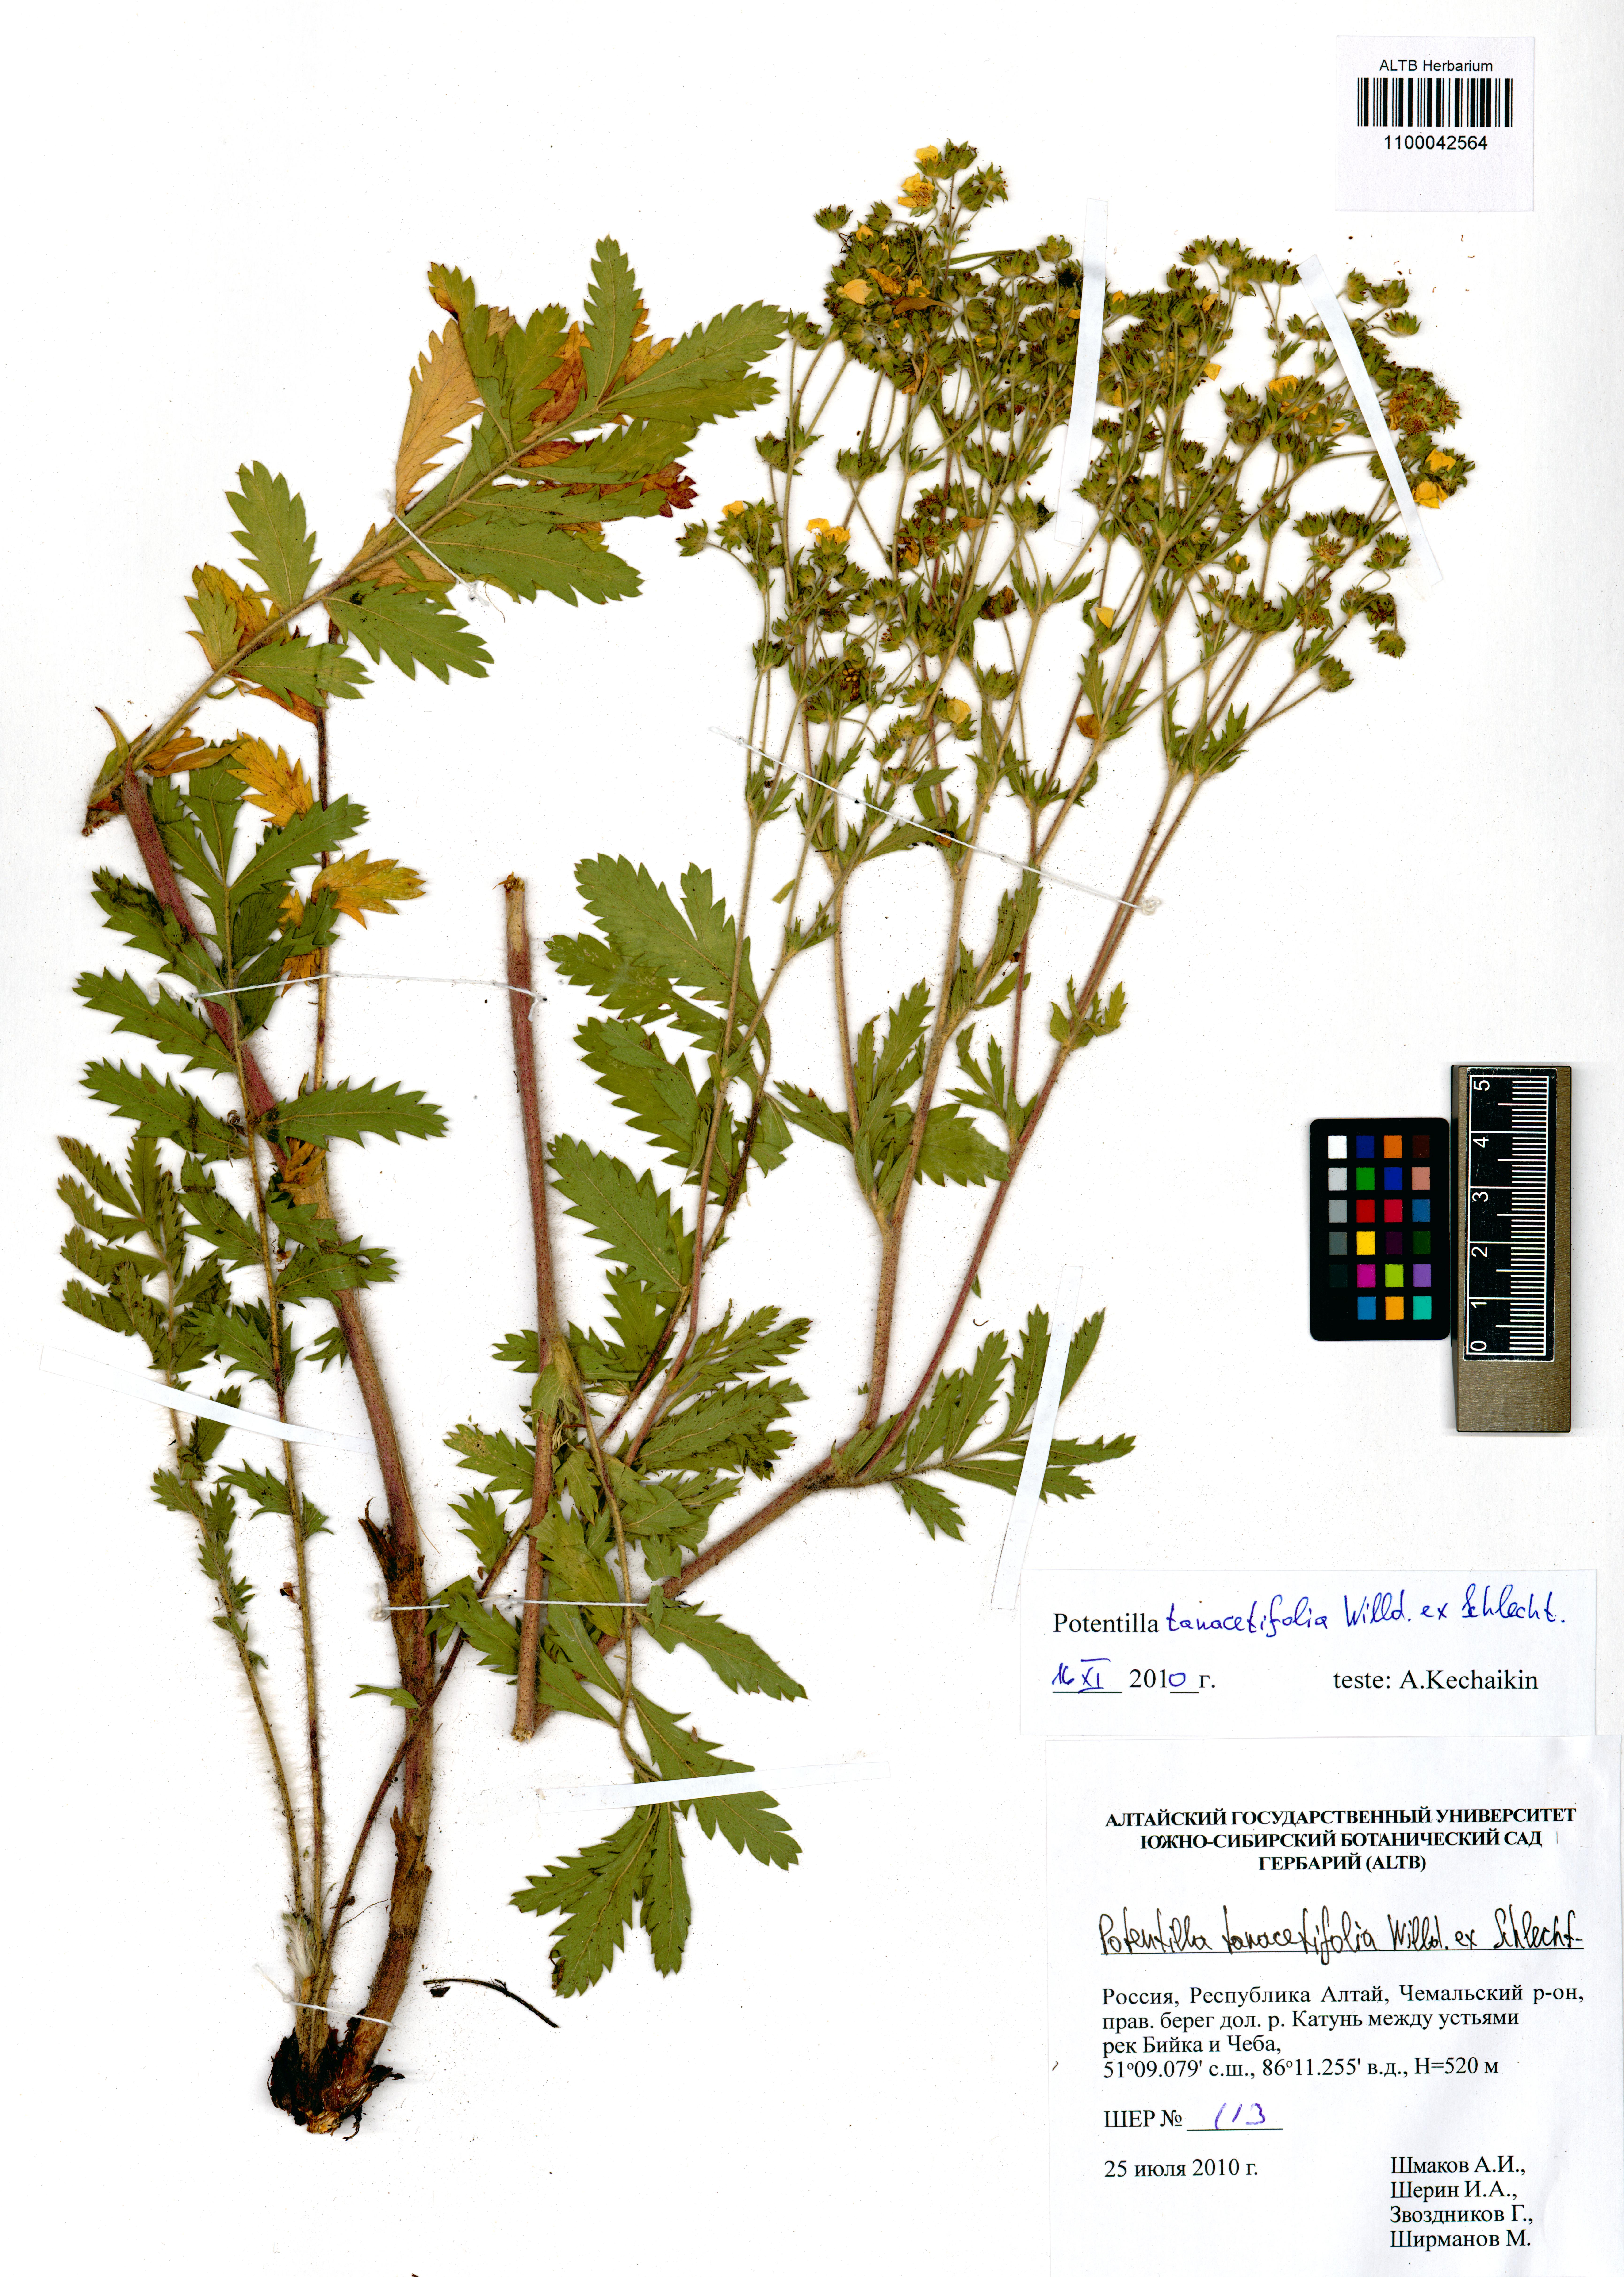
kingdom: Plantae
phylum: Tracheophyta
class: Magnoliopsida
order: Rosales
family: Rosaceae
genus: Potentilla
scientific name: Potentilla tanacetifolia
